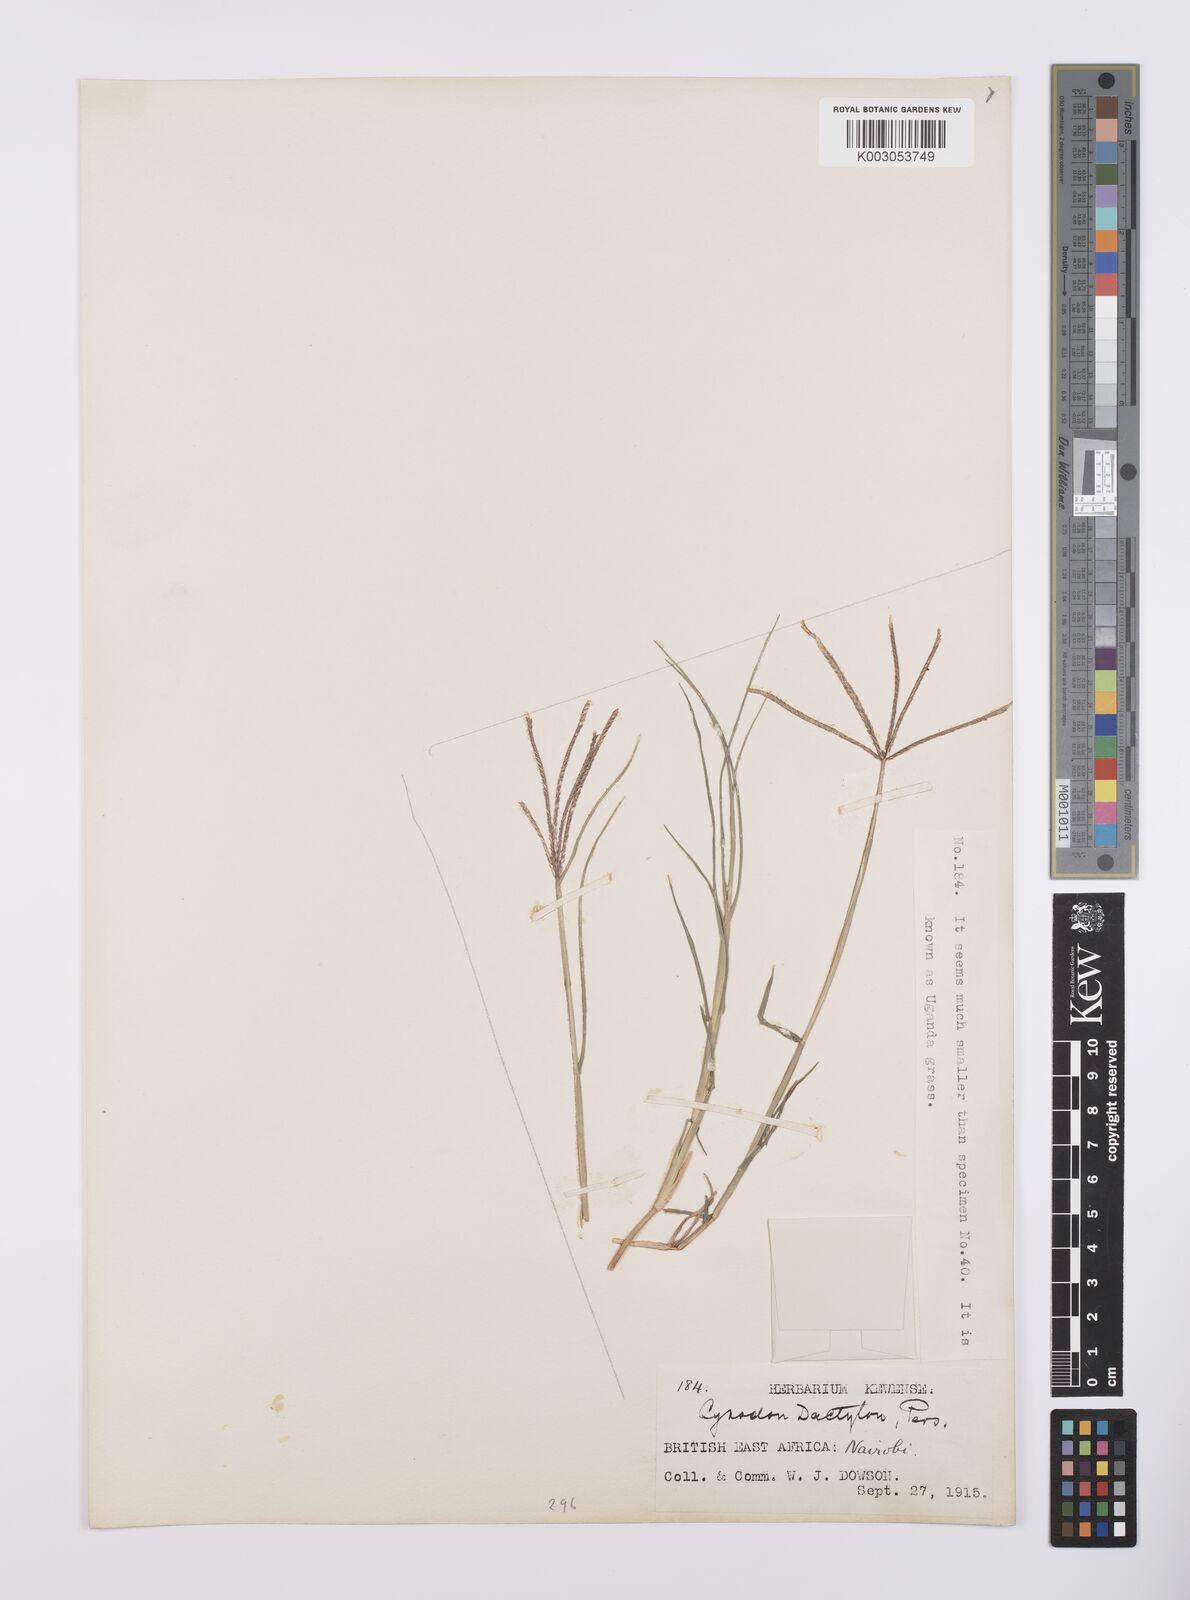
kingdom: Plantae
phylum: Tracheophyta
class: Liliopsida
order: Poales
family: Poaceae
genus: Cynodon
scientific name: Cynodon dactylon
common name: Bermuda grass
